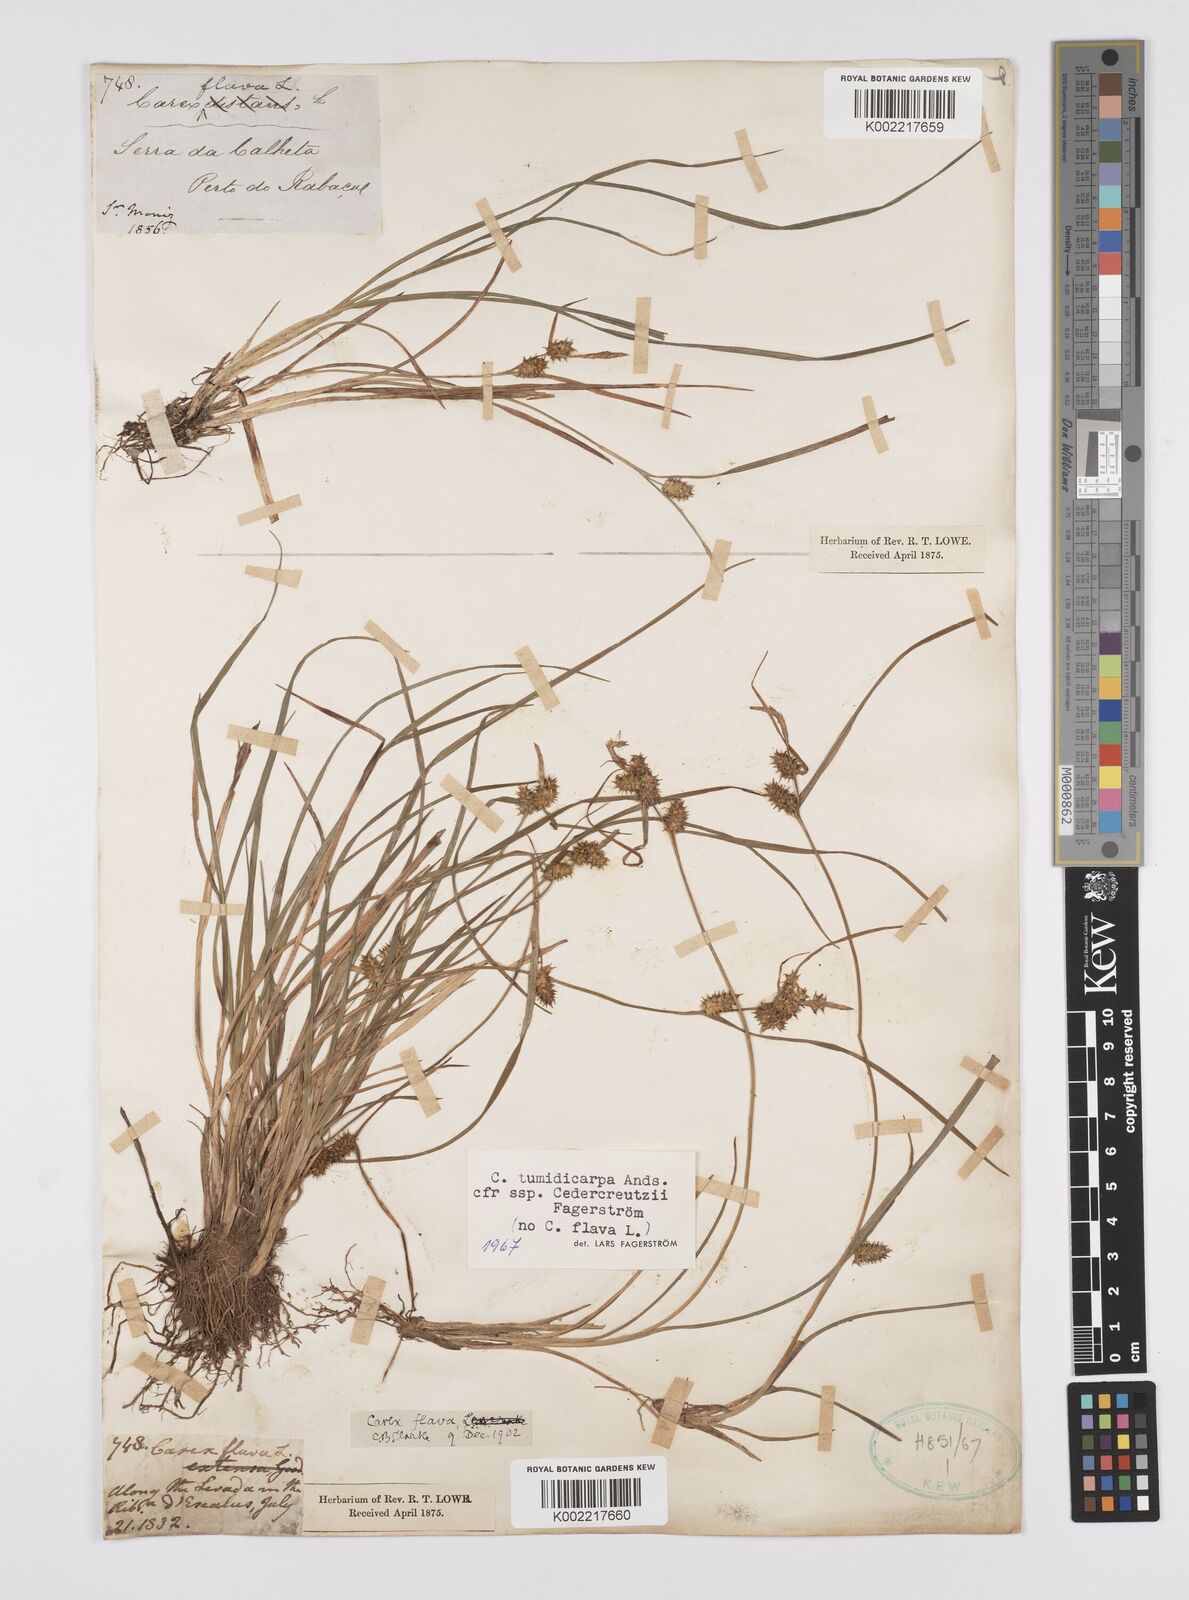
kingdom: Plantae
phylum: Tracheophyta
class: Liliopsida
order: Poales
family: Cyperaceae
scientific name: Cyperaceae
